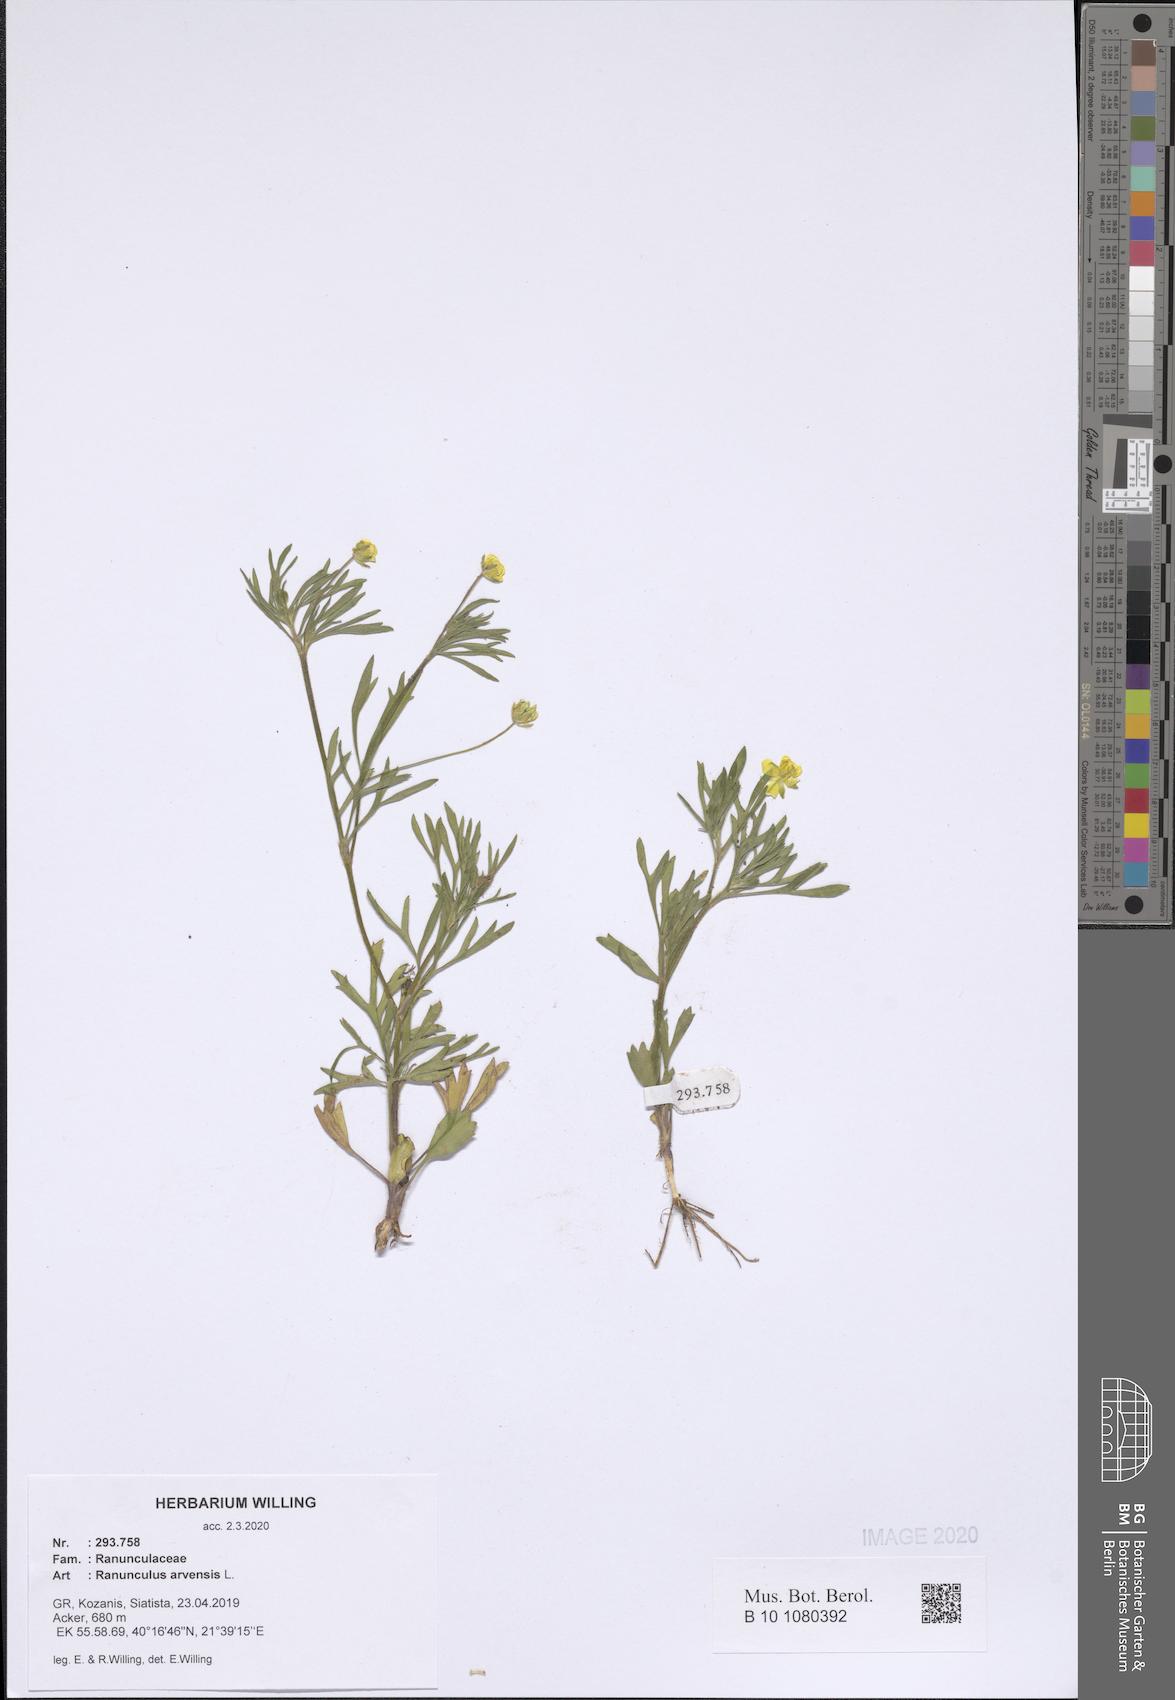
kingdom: Plantae
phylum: Tracheophyta
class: Magnoliopsida
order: Ranunculales
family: Ranunculaceae
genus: Ranunculus
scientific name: Ranunculus arvensis
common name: Corn buttercup
